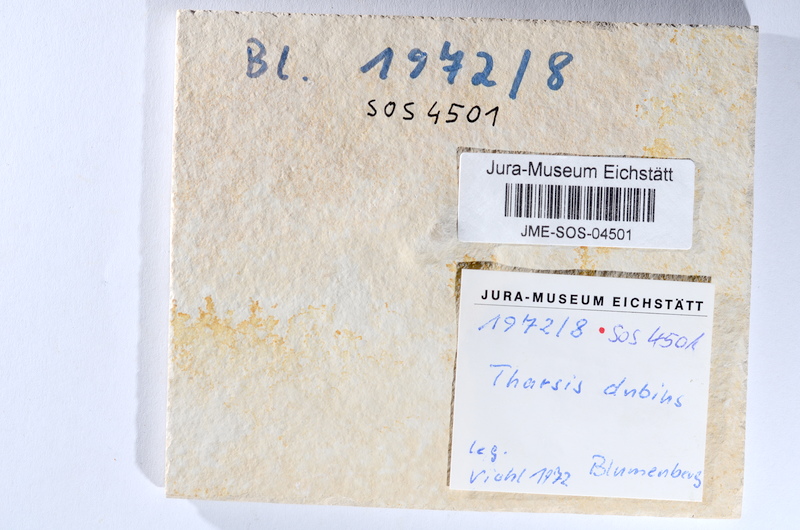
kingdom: Animalia
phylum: Chordata
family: Ascalaboidae
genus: Tharsis
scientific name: Tharsis dubius
